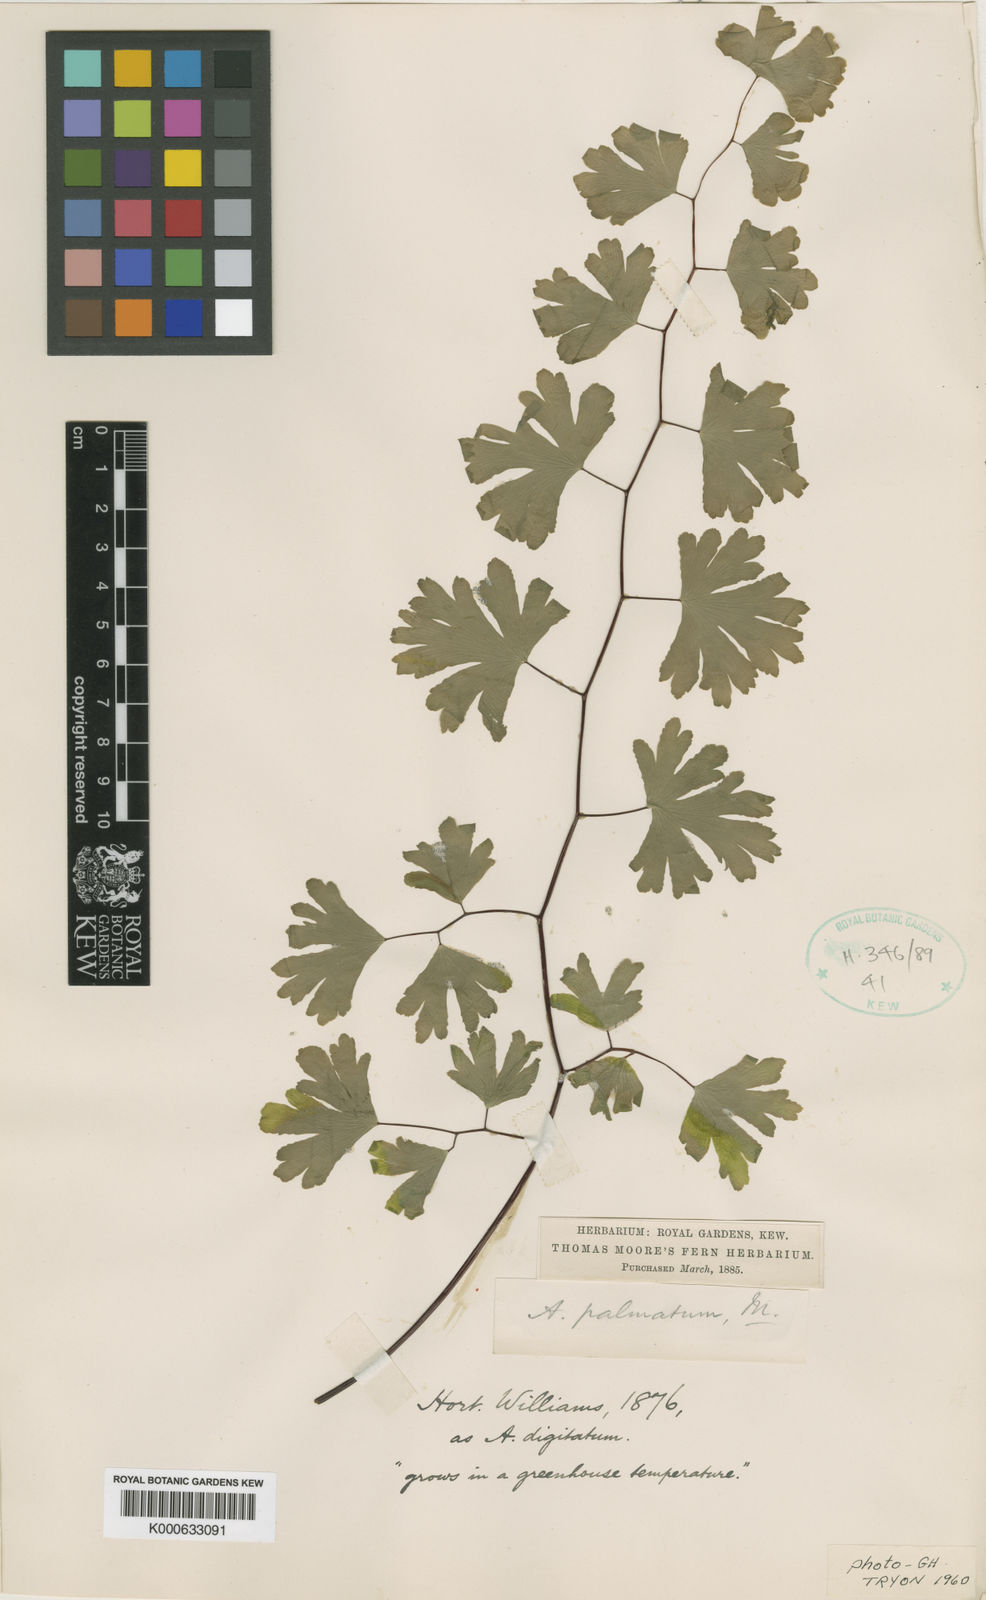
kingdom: Plantae
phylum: Tracheophyta
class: Polypodiopsida
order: Polypodiales
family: Pteridaceae
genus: Adiantum
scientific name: Adiantum
